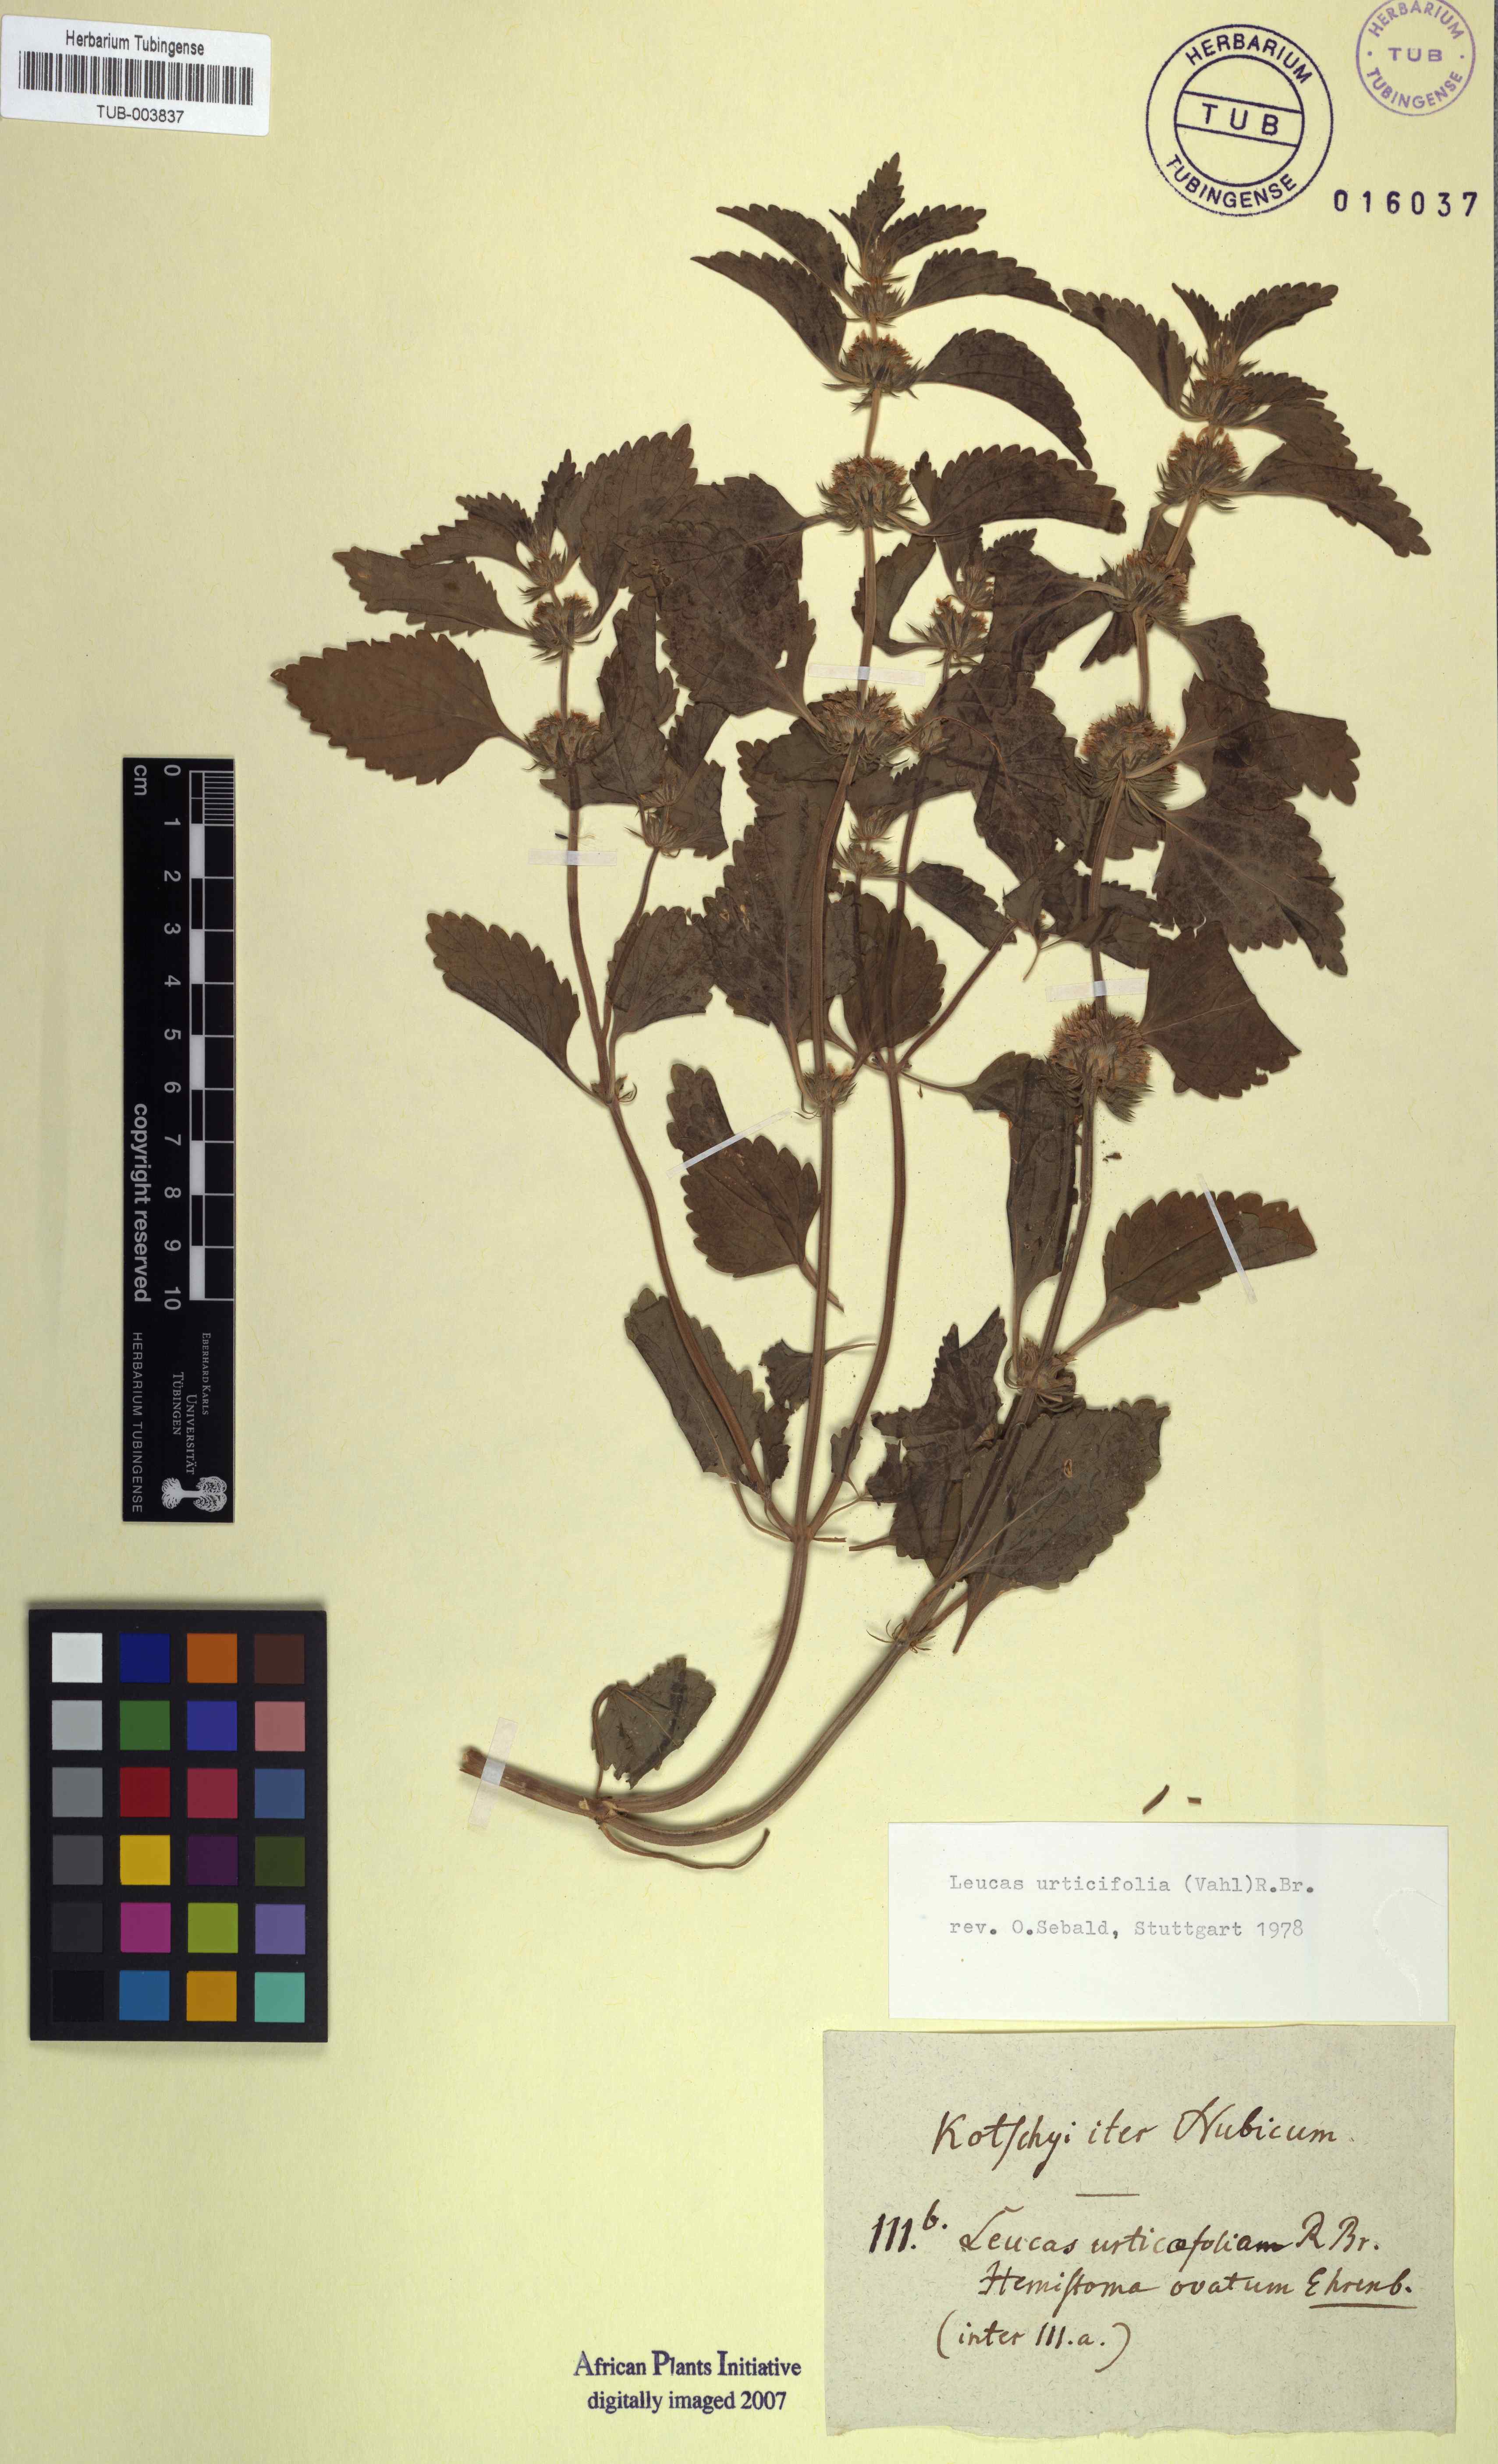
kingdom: Plantae
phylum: Tracheophyta
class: Magnoliopsida
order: Lamiales
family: Lamiaceae
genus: Leucas
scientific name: Leucas urticifolia
